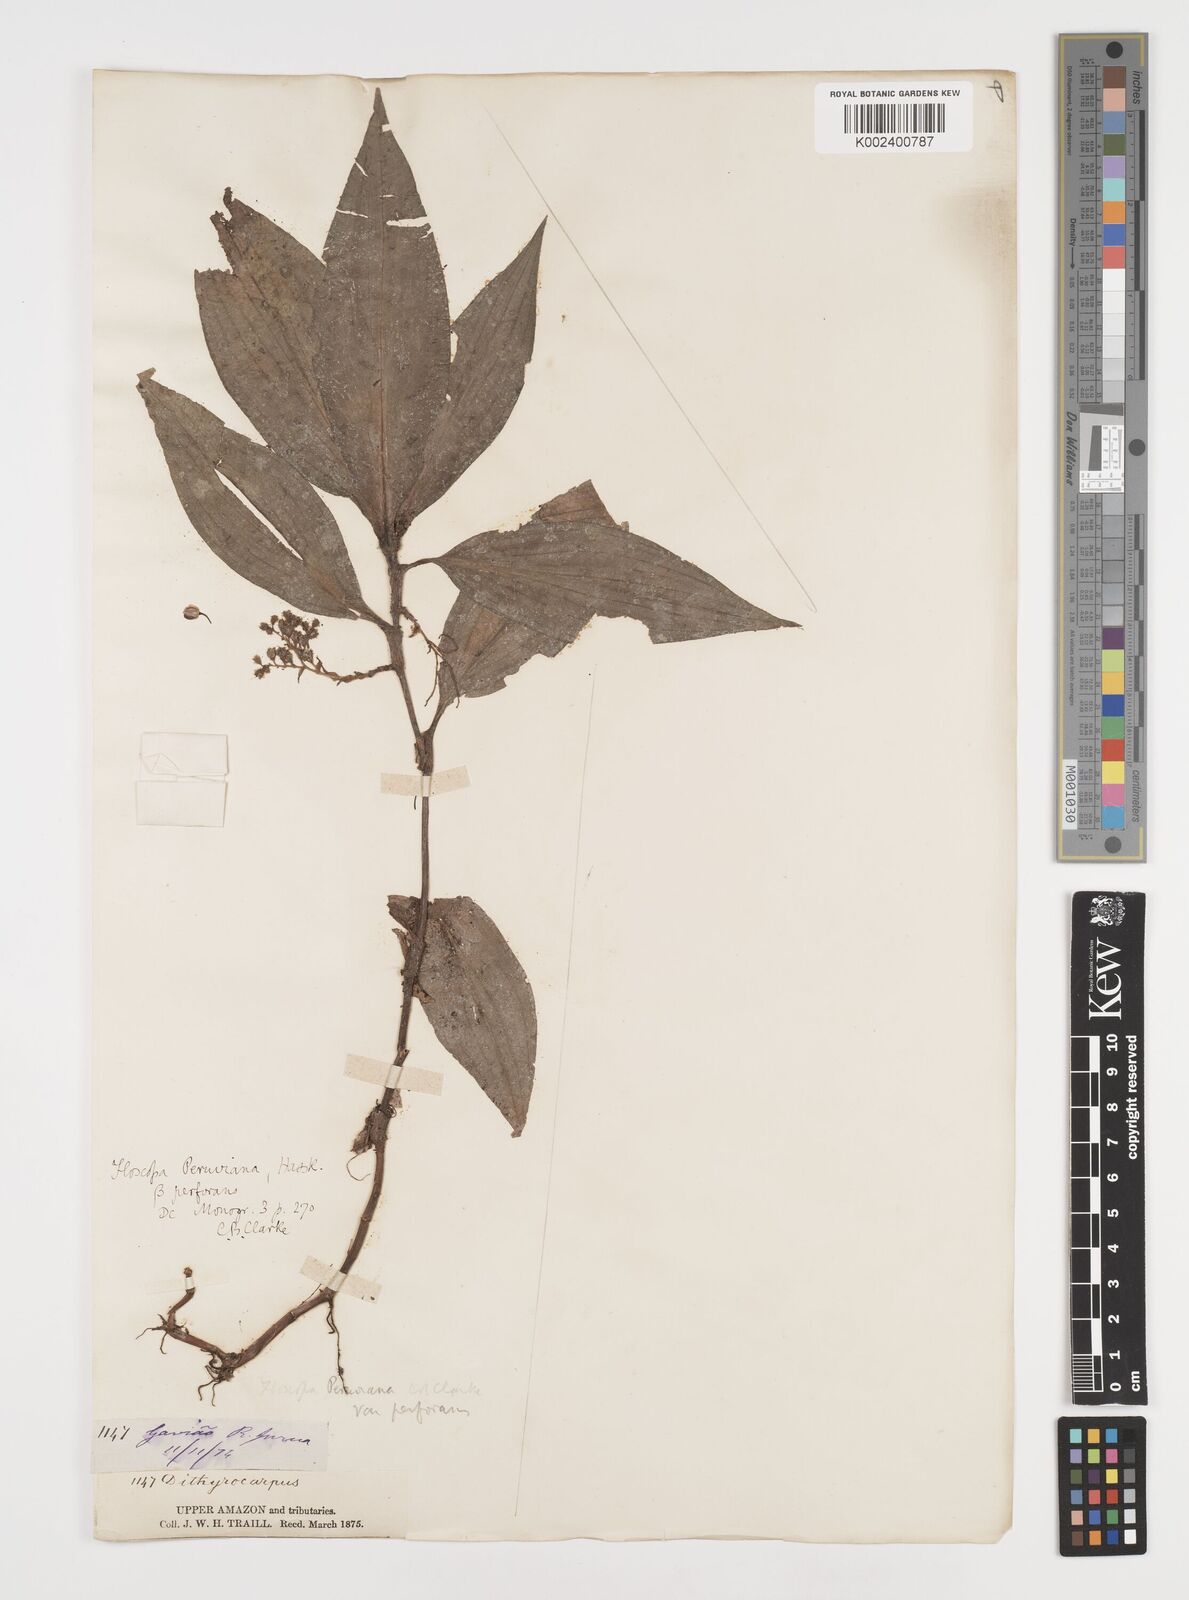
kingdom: Plantae
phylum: Tracheophyta
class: Liliopsida
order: Commelinales
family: Commelinaceae
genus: Floscopa
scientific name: Floscopa perforans
